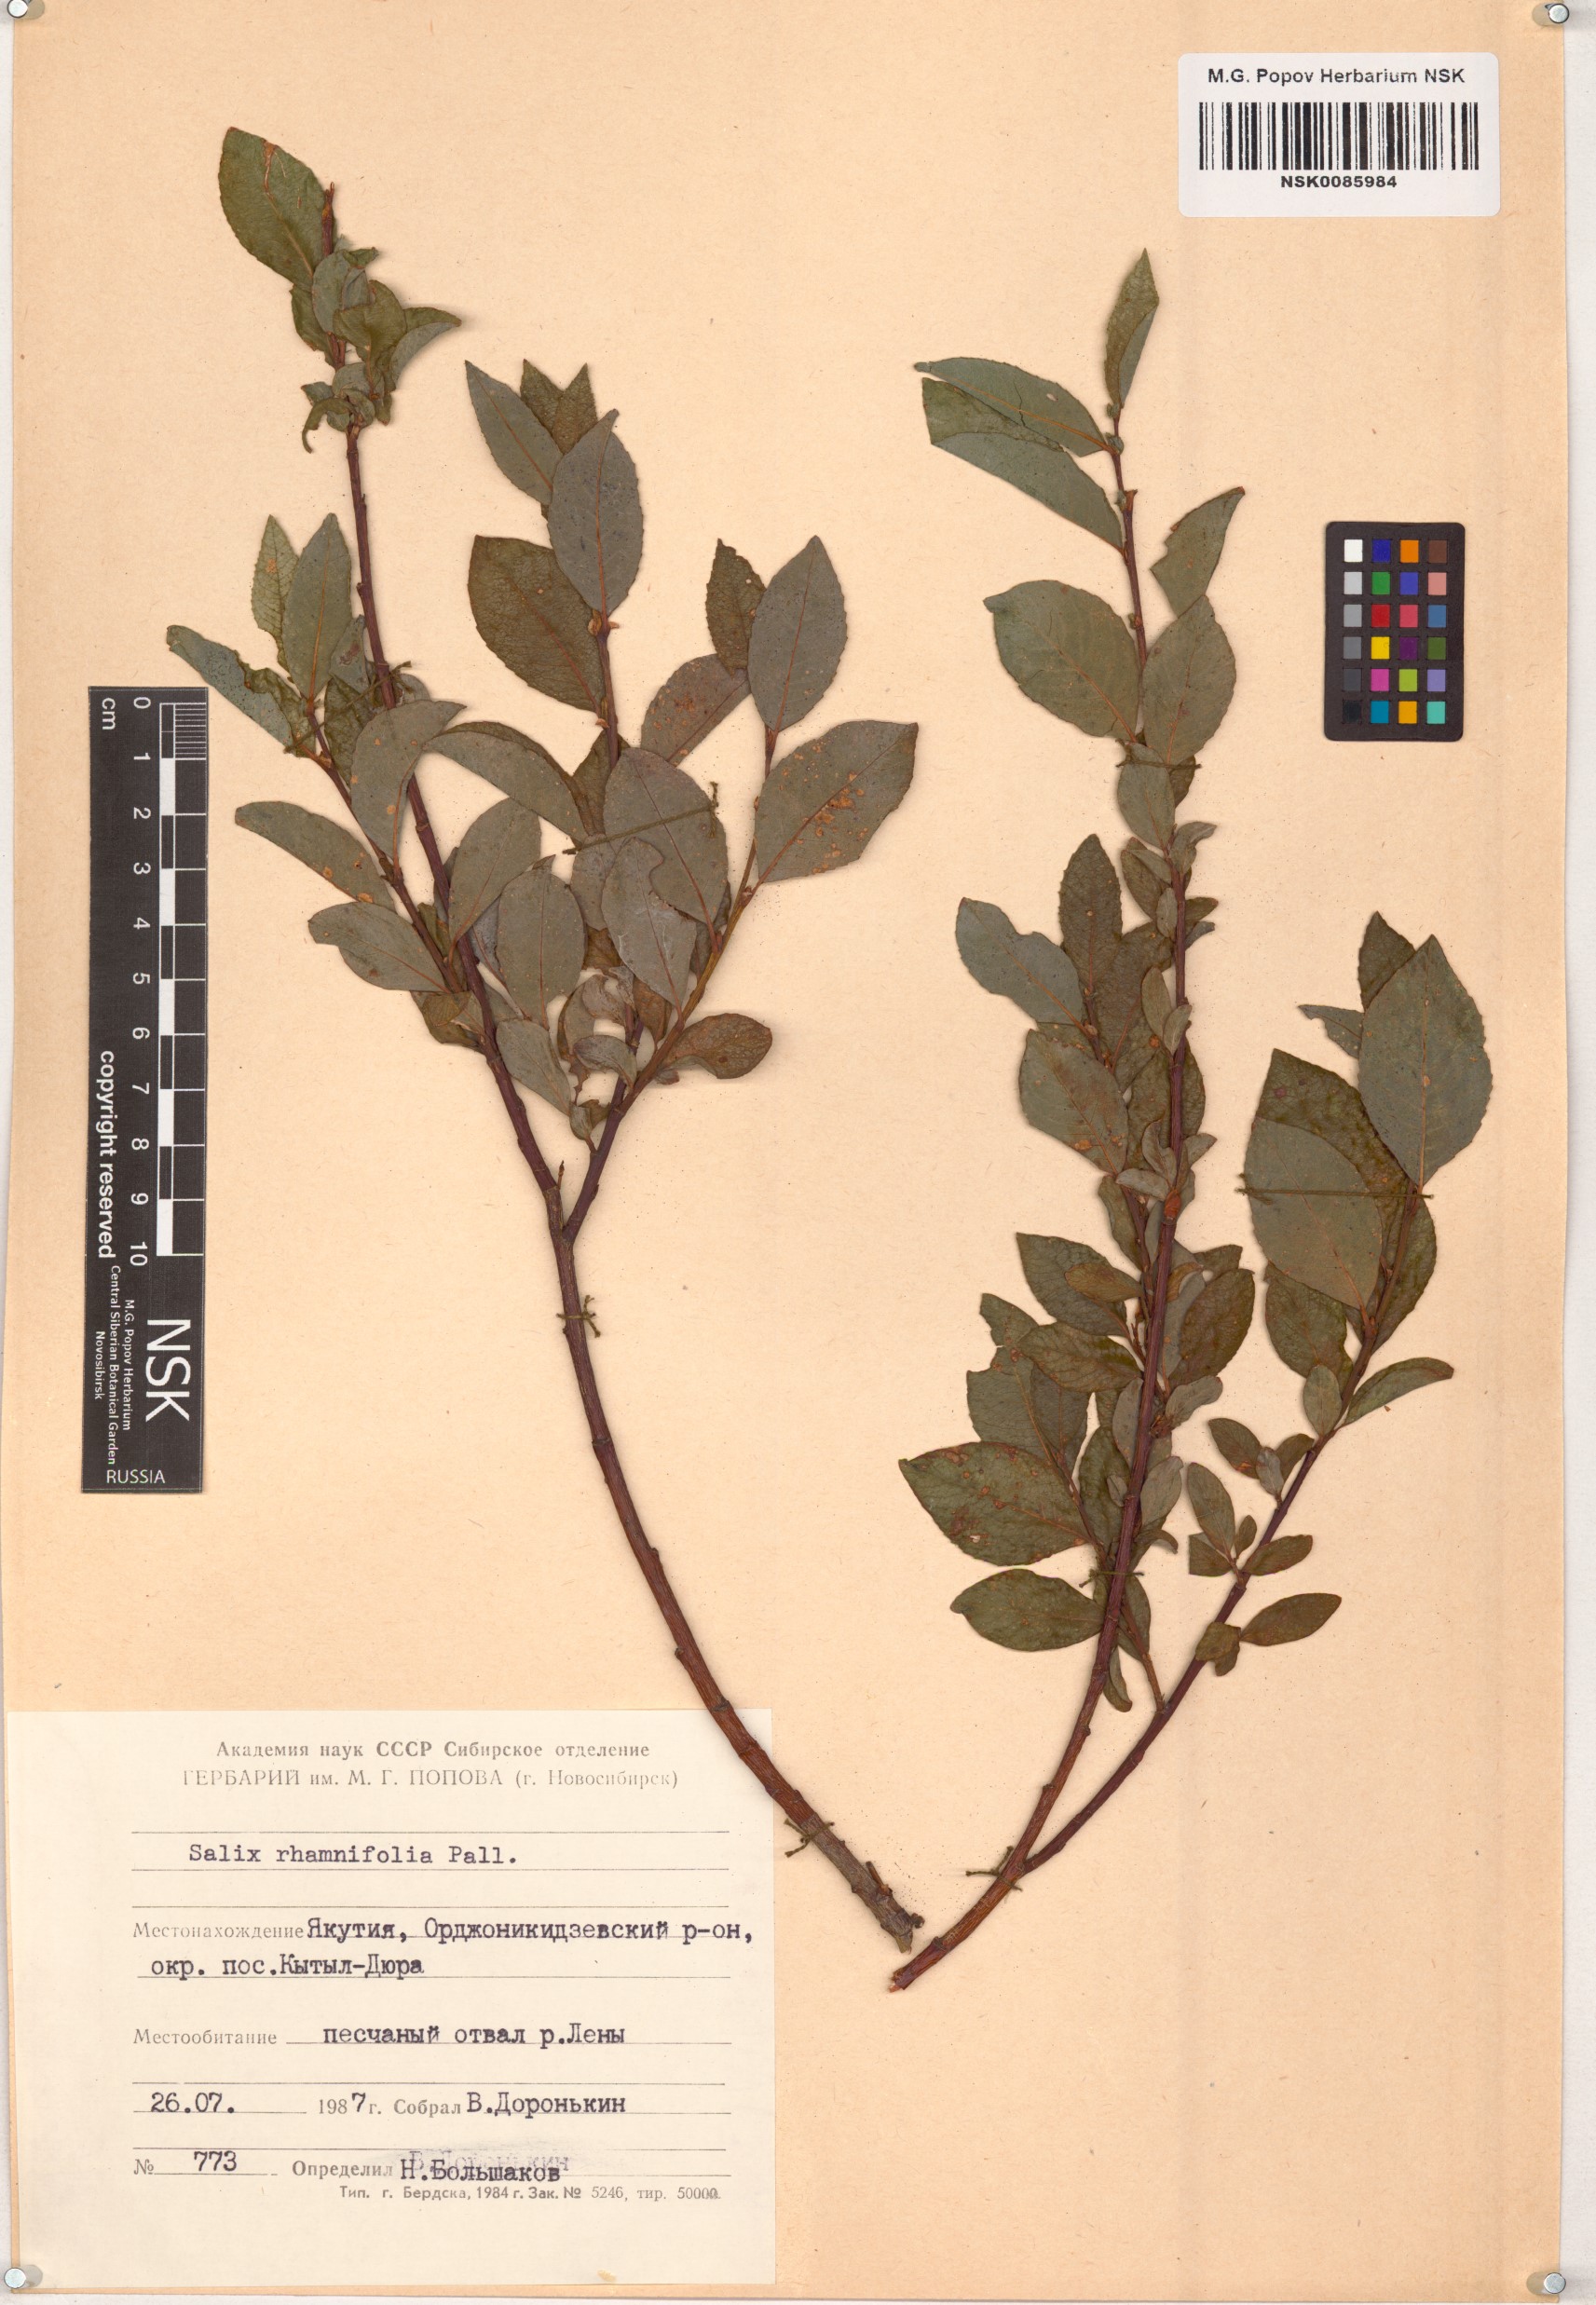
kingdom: Plantae
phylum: Tracheophyta
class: Magnoliopsida
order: Malpighiales
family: Salicaceae
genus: Salix
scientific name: Salix rhamnifolia
